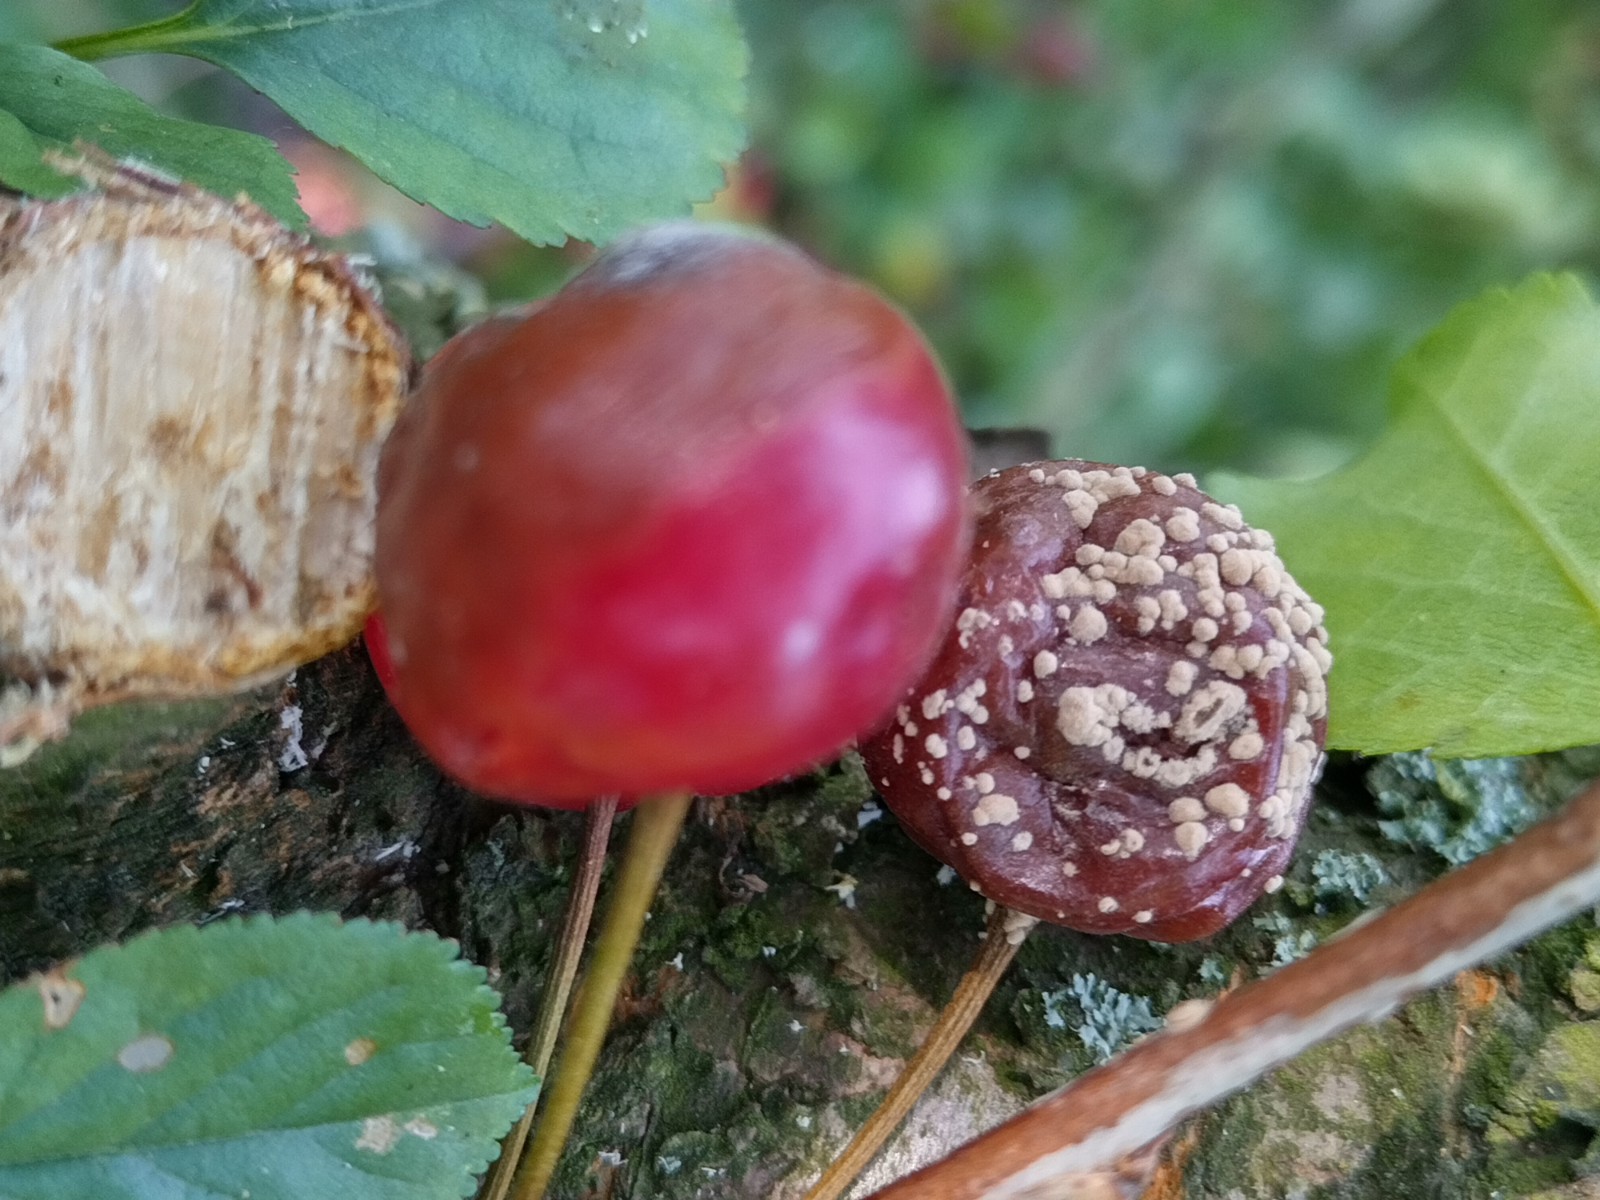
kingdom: Fungi
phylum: Ascomycota
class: Leotiomycetes
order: Helotiales
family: Sclerotiniaceae
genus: Monilinia
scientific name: Monilinia laxa
